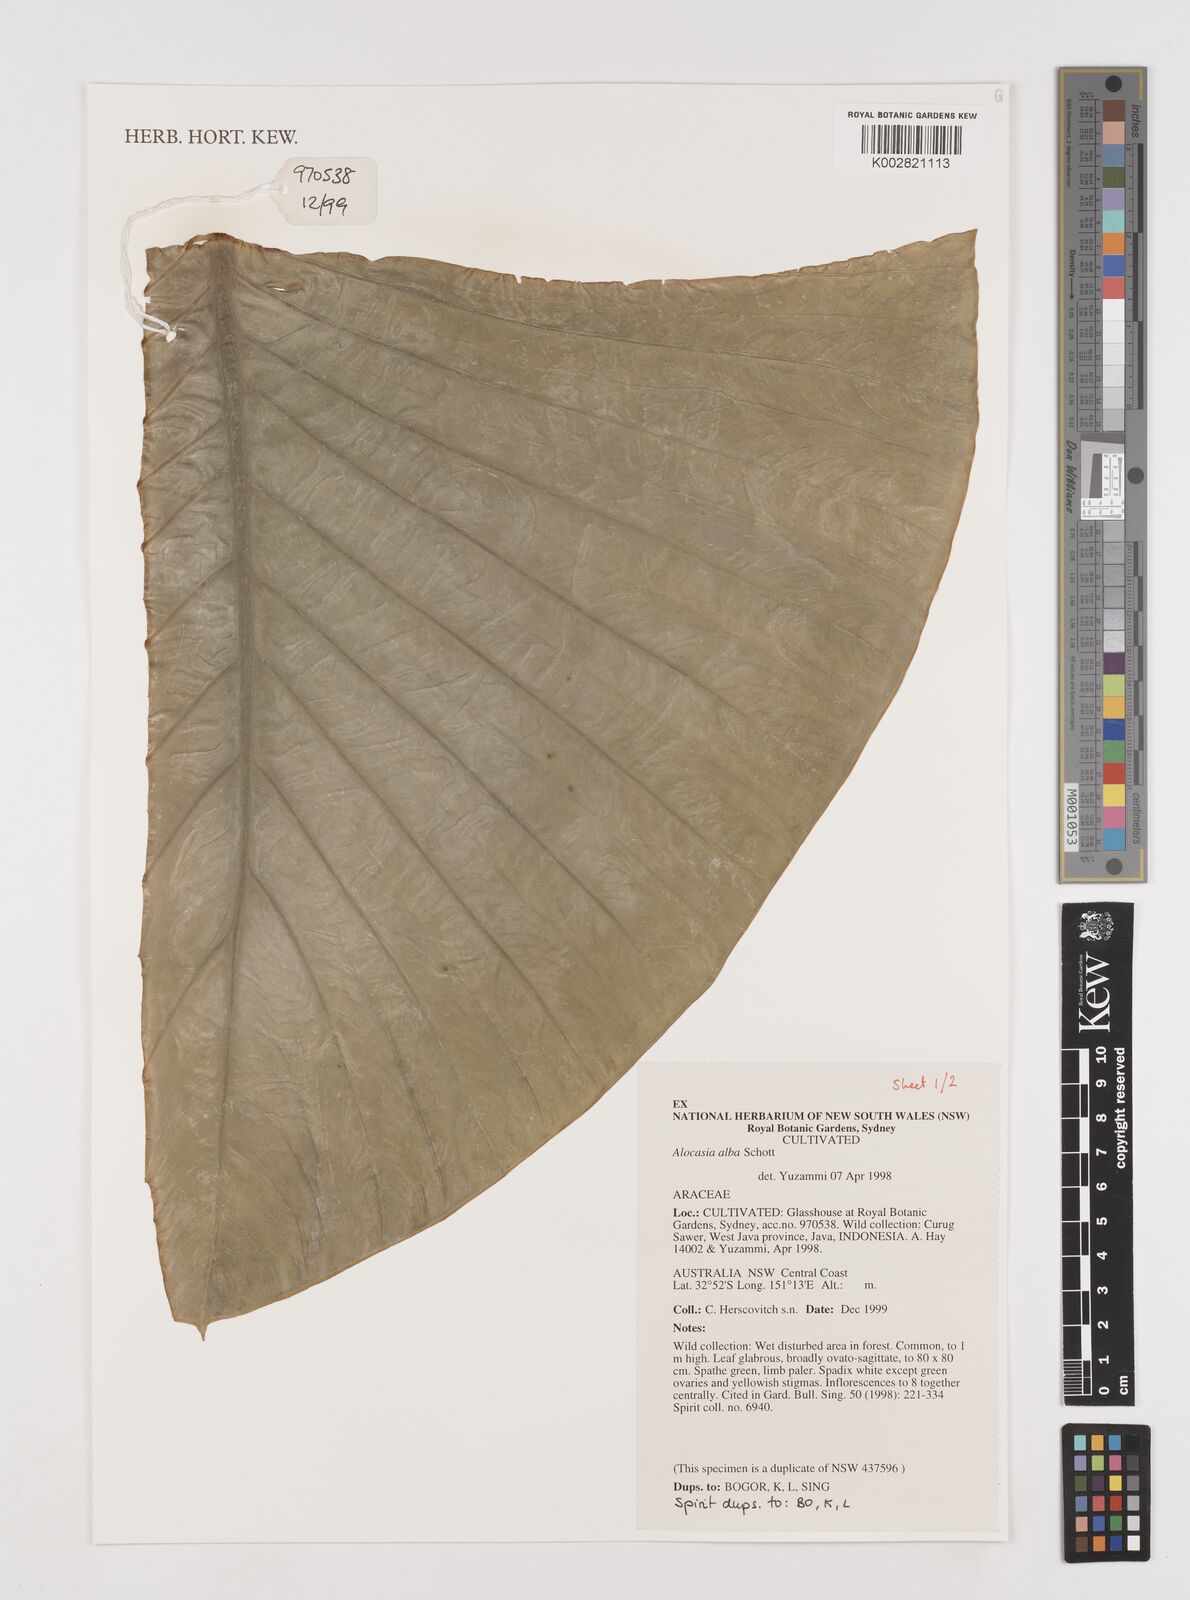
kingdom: Plantae
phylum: Tracheophyta
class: Liliopsida
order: Alismatales
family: Araceae
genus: Alocasia
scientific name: Alocasia alba
